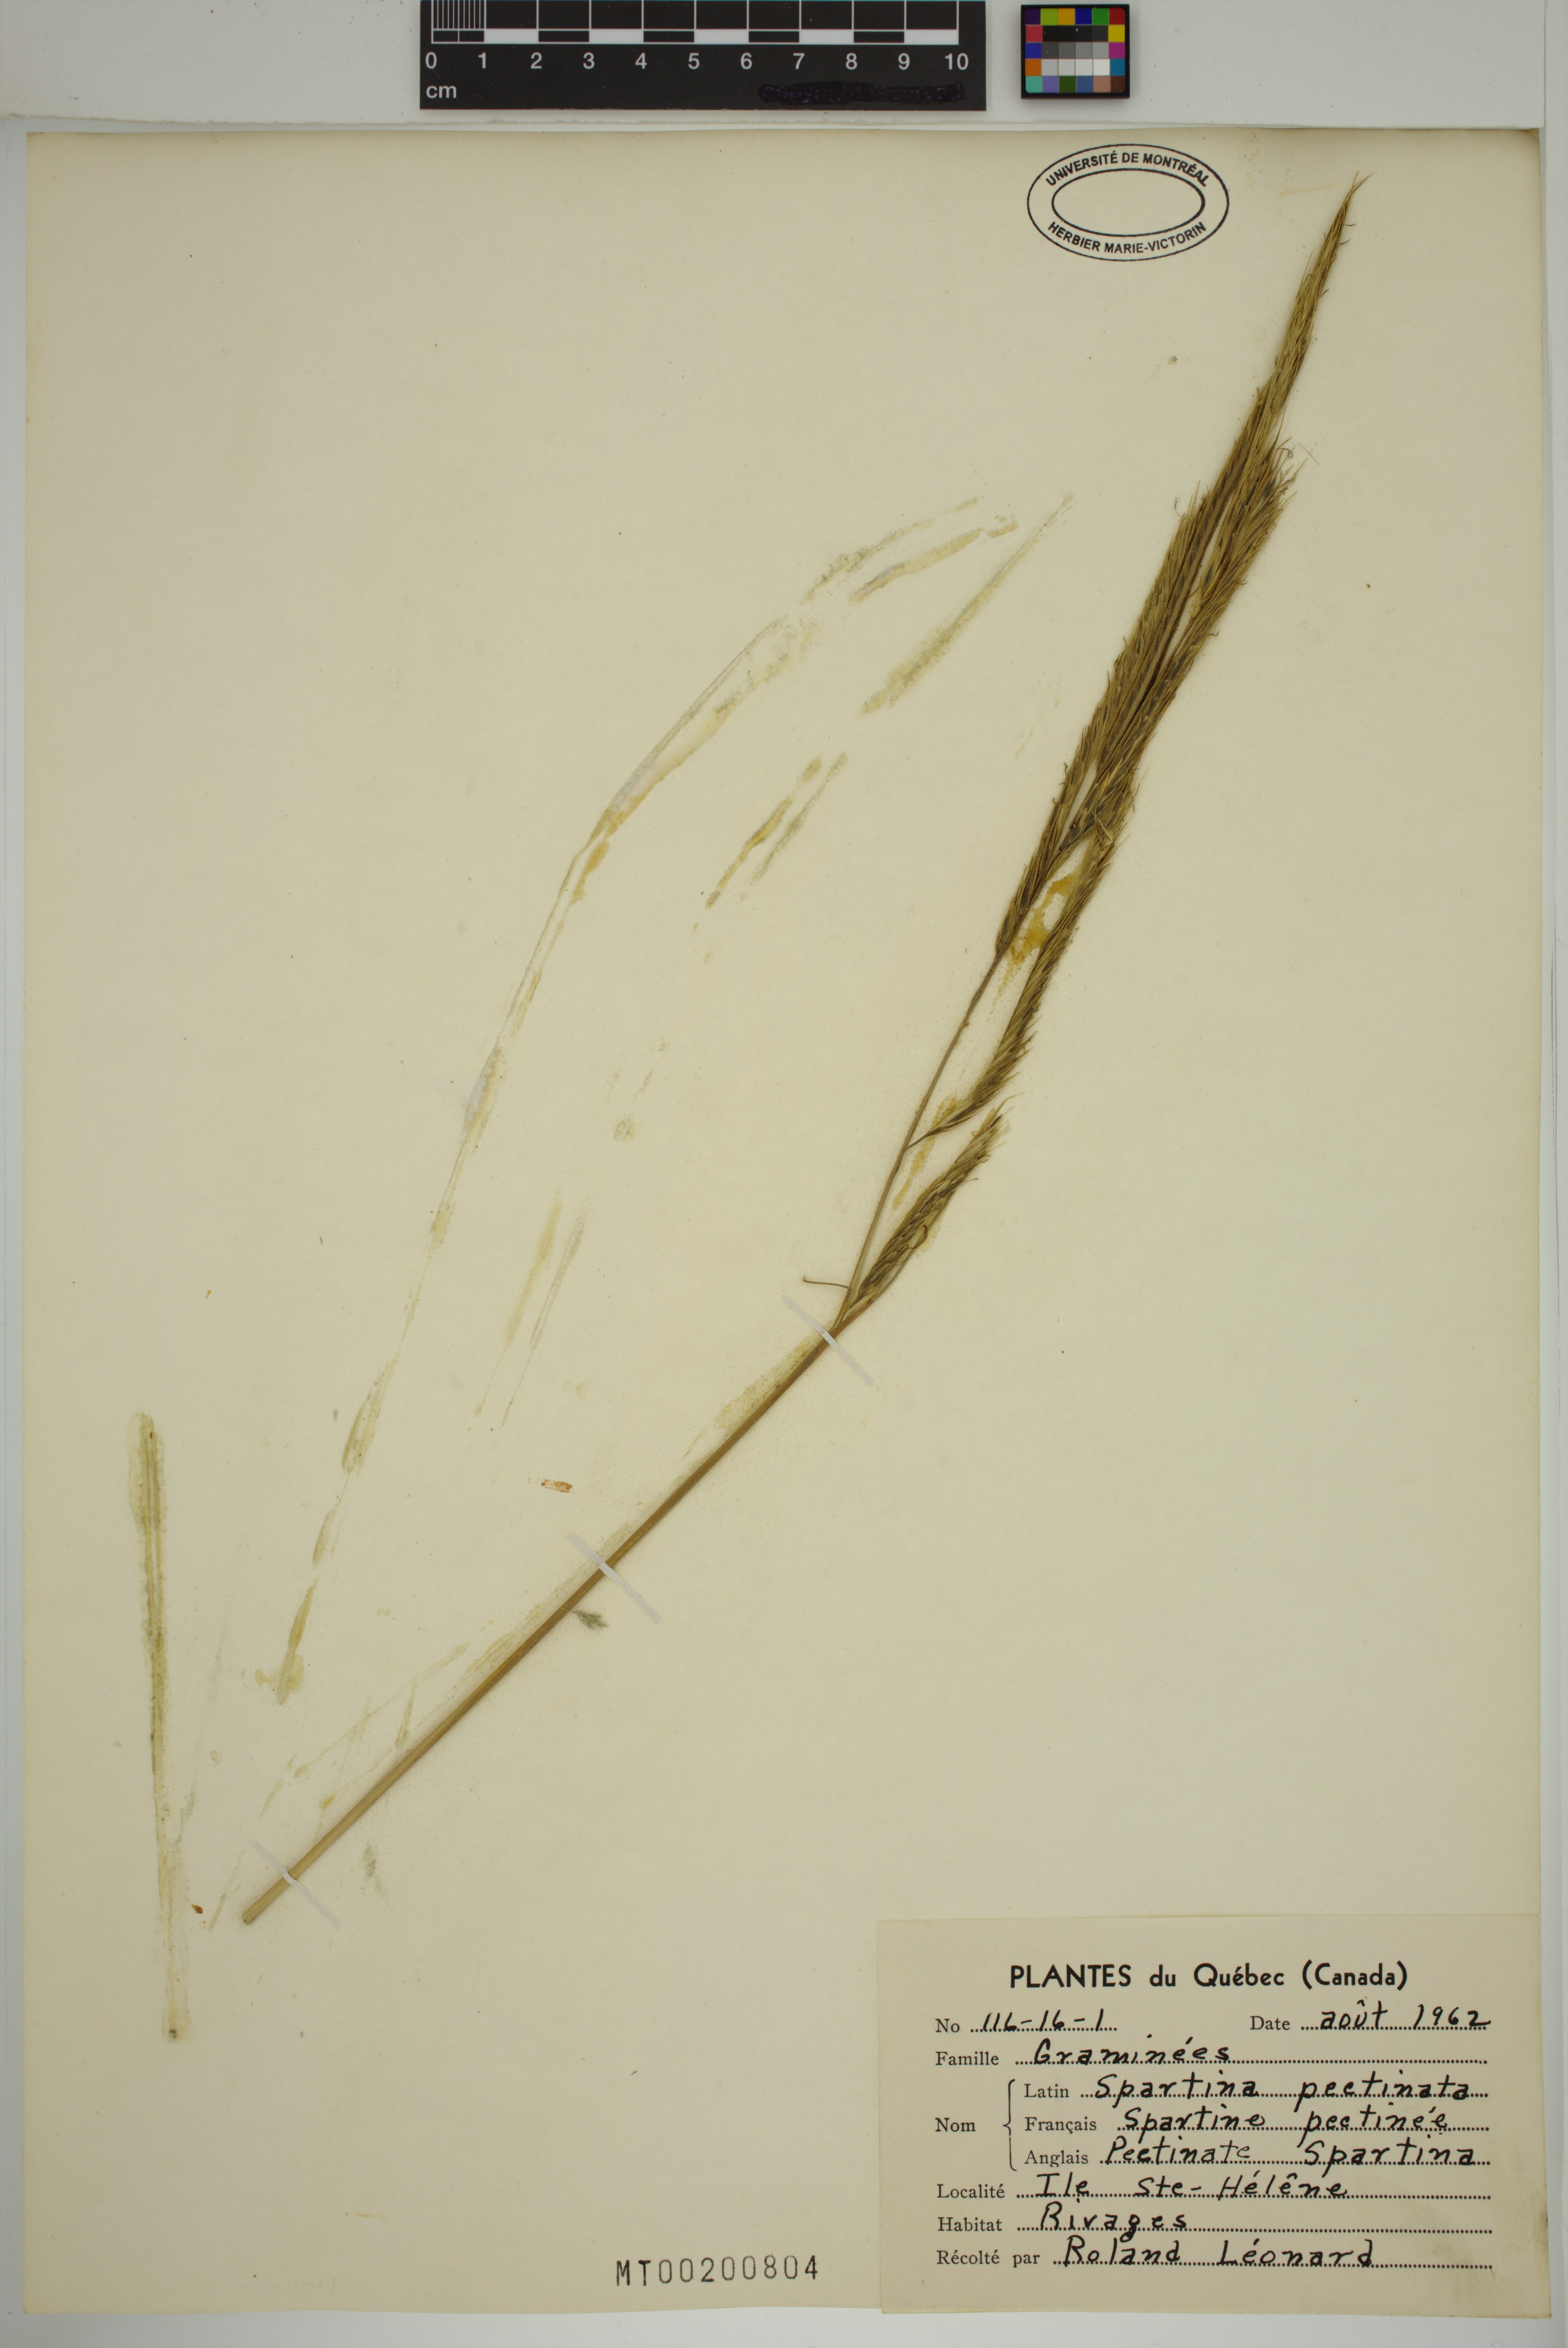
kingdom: Plantae
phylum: Tracheophyta
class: Liliopsida
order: Poales
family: Poaceae
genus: Sporobolus
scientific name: Sporobolus michauxianus
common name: Freshwater cordgrass
